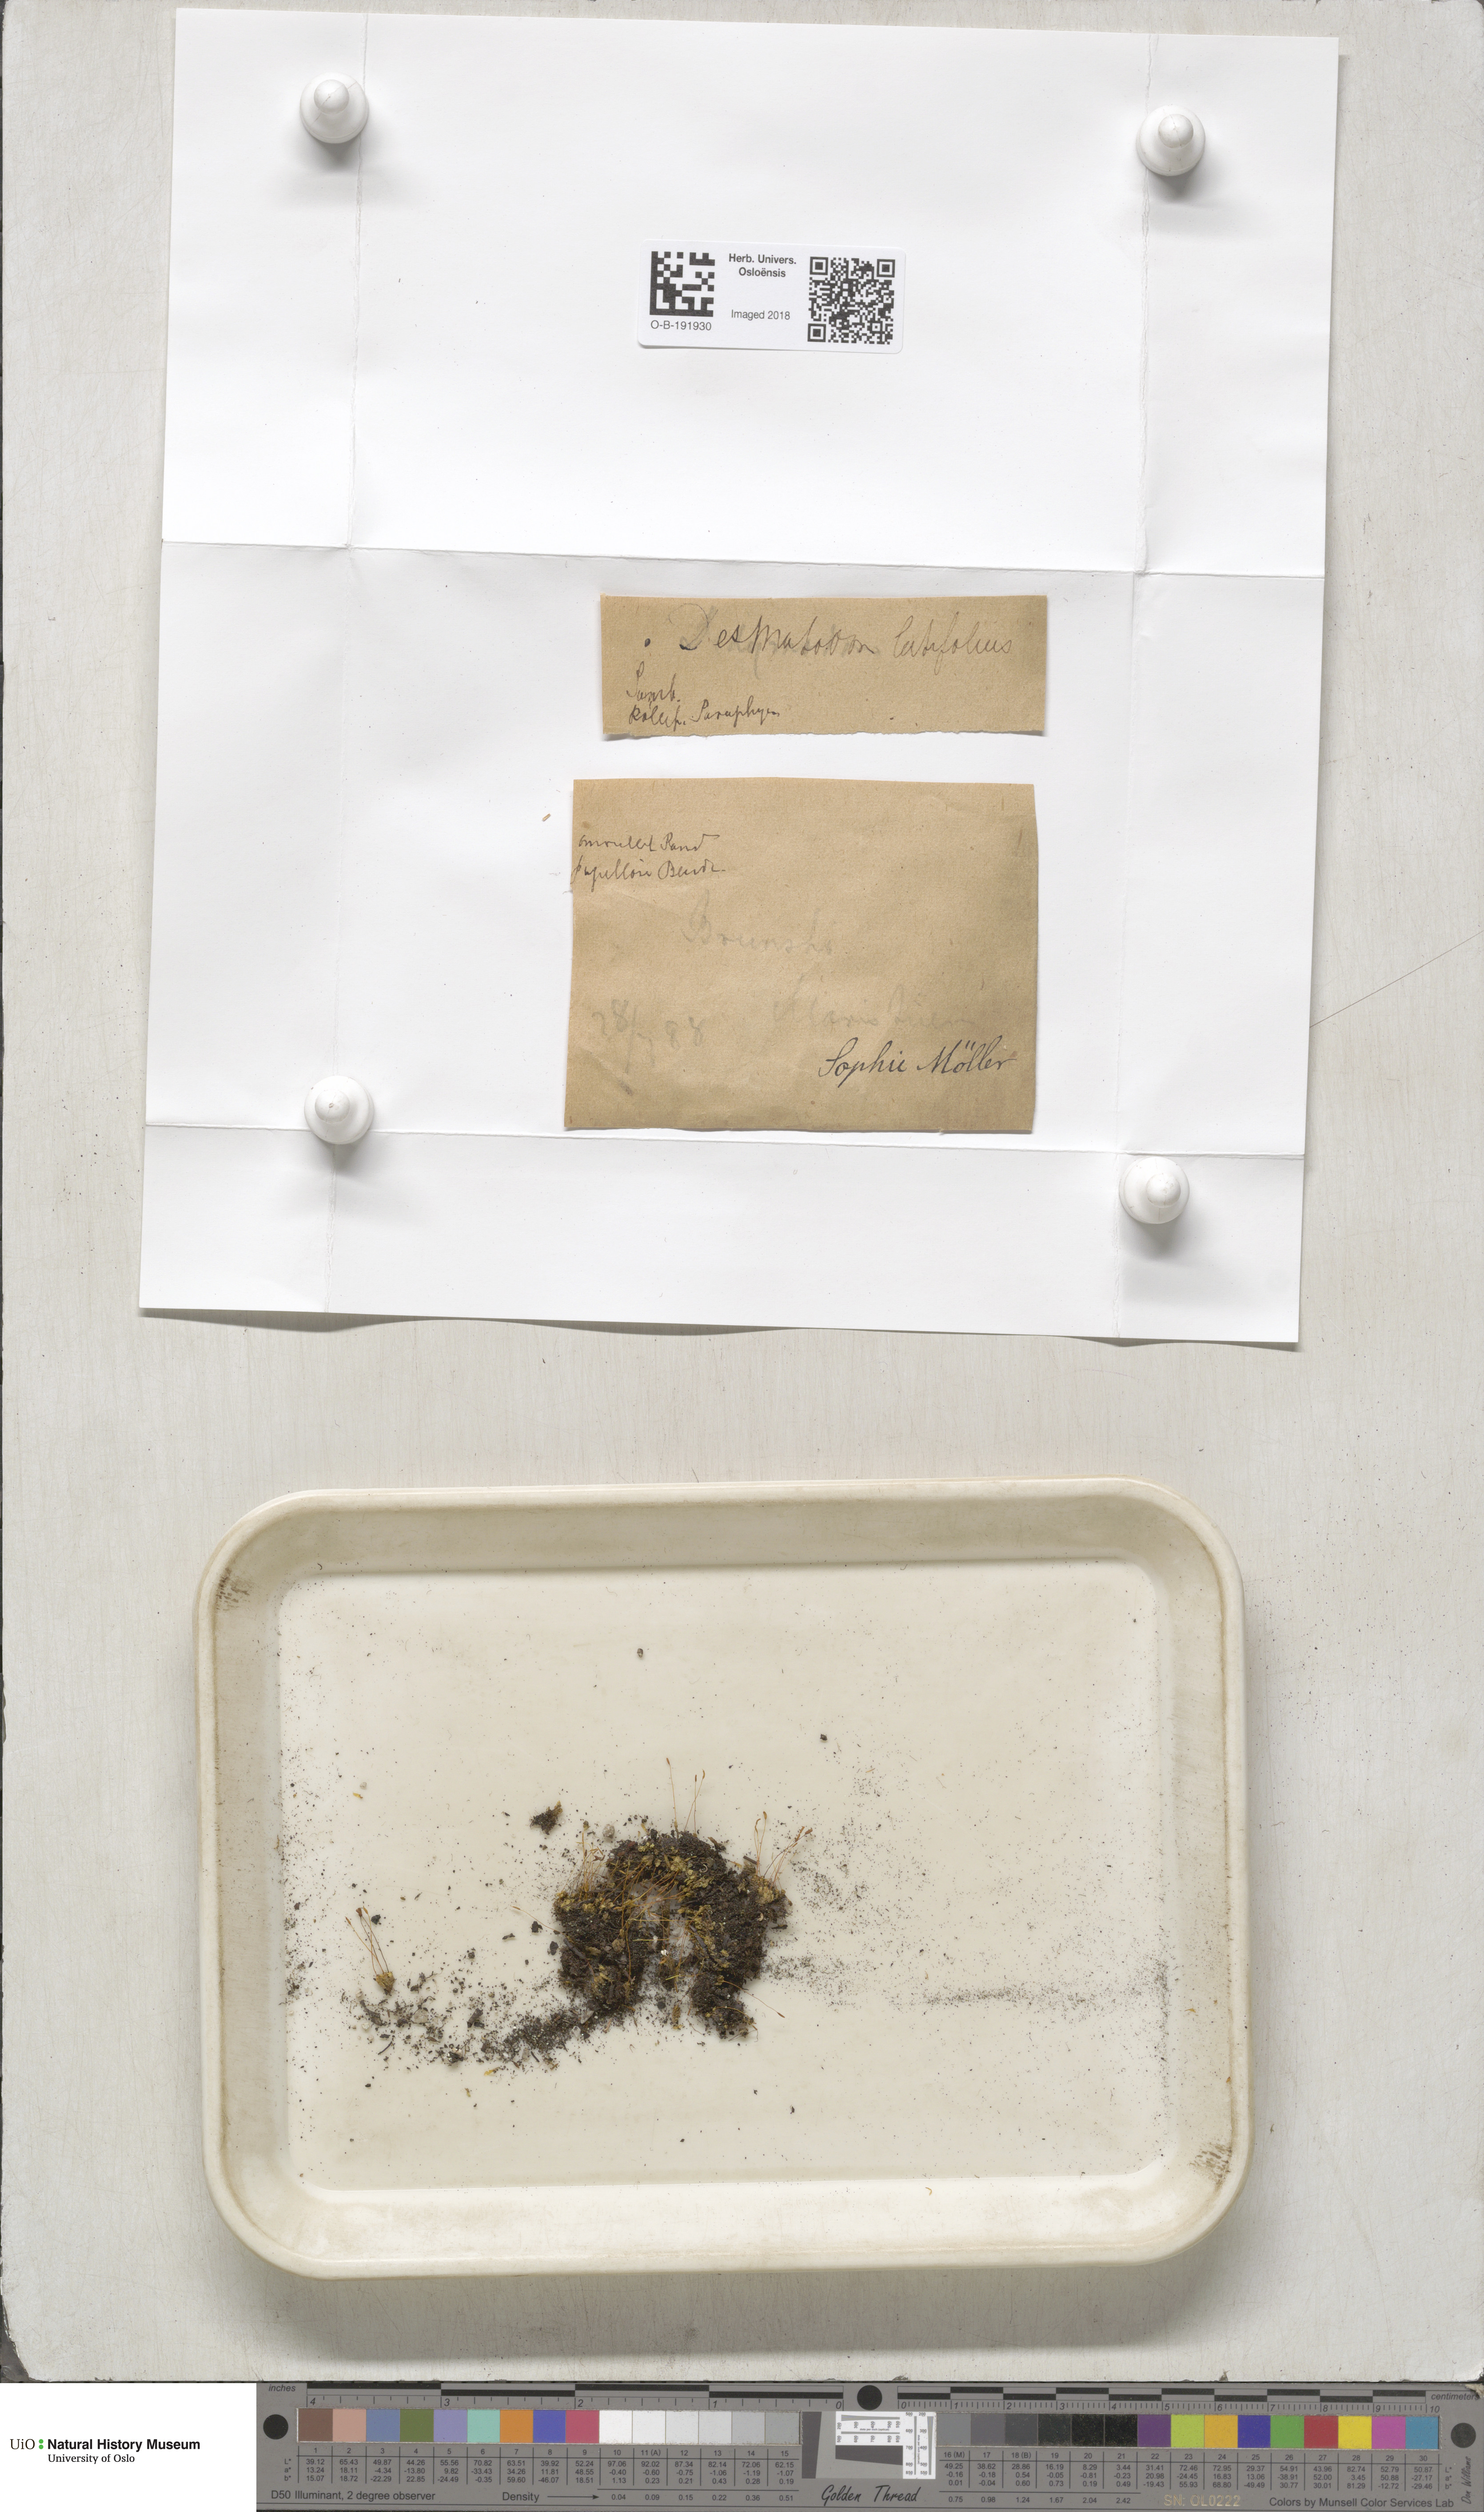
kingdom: Plantae
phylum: Bryophyta
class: Bryopsida
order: Pottiales
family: Pottiaceae
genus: Tortula
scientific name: Tortula hoppeana
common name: Hoppe's screw moss
